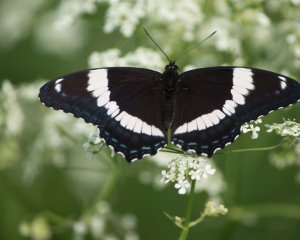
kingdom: Animalia
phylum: Arthropoda
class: Insecta
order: Lepidoptera
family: Nymphalidae
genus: Limenitis
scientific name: Limenitis arthemis
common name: Red-spotted Admiral
